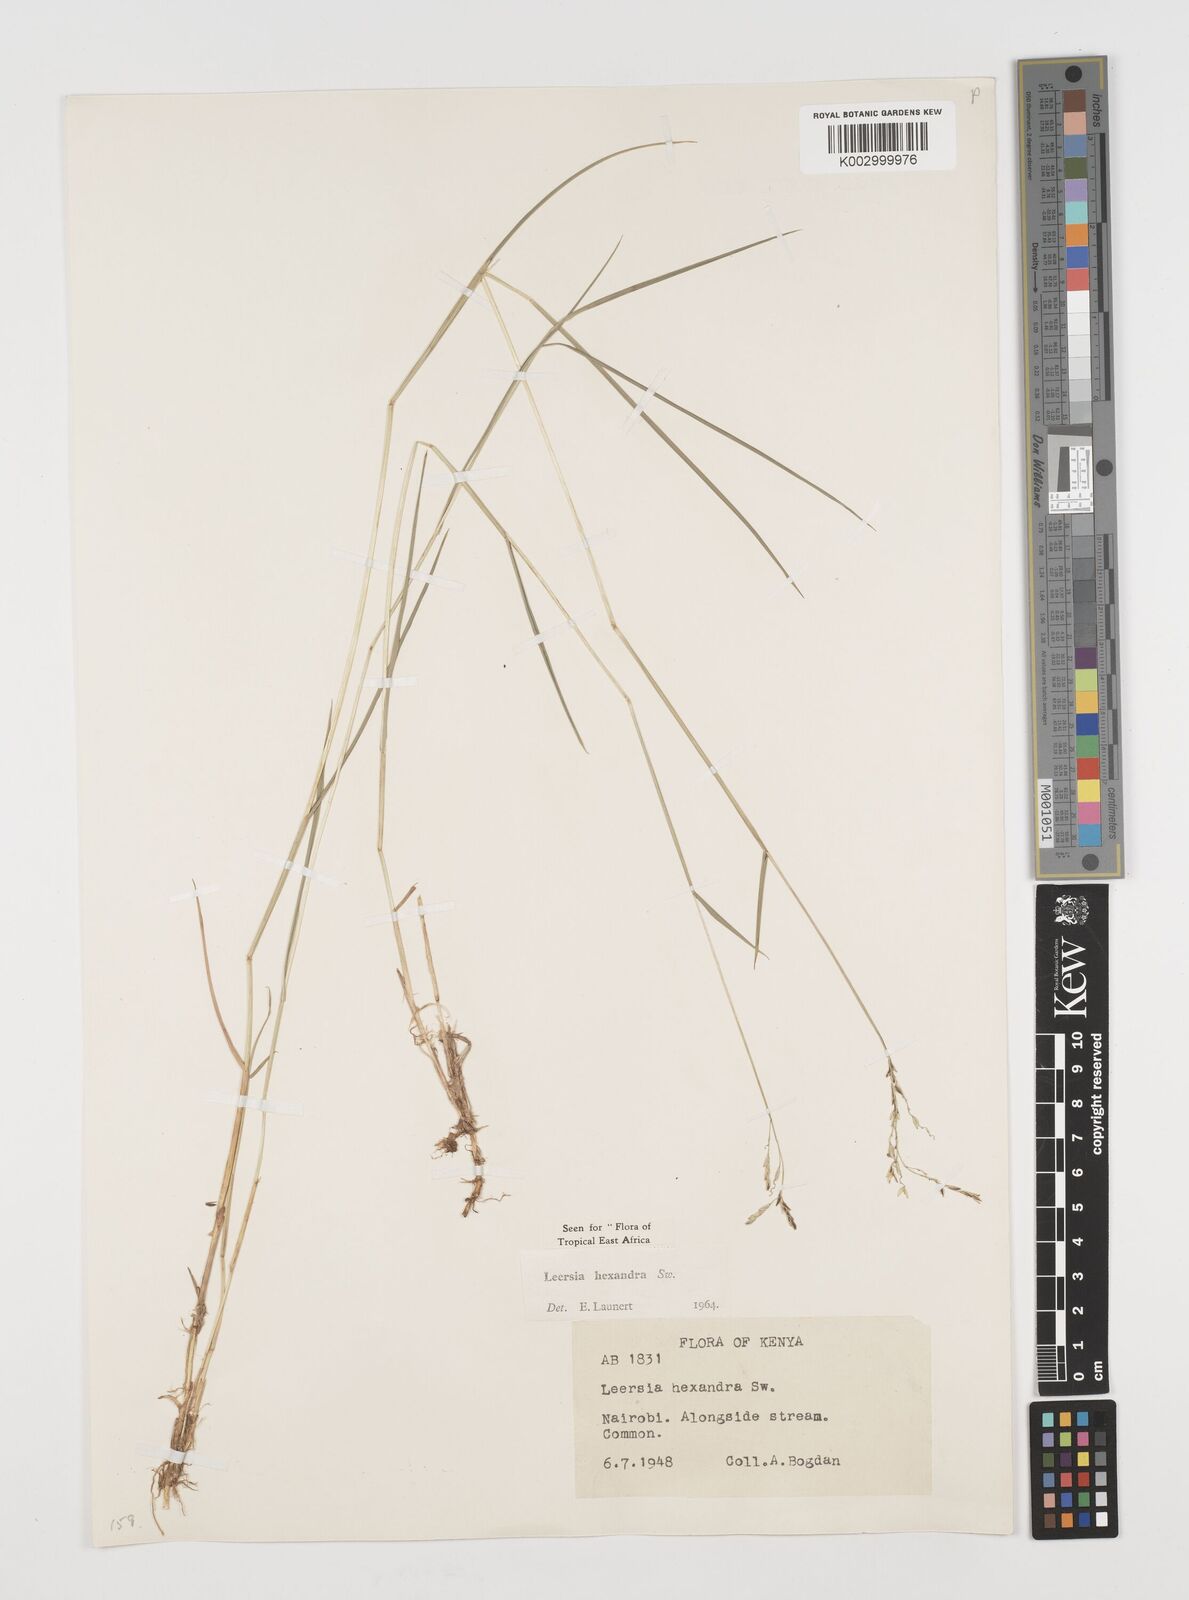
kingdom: Plantae
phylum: Tracheophyta
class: Liliopsida
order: Poales
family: Poaceae
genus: Leersia
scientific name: Leersia hexandra
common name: Southern cut grass
